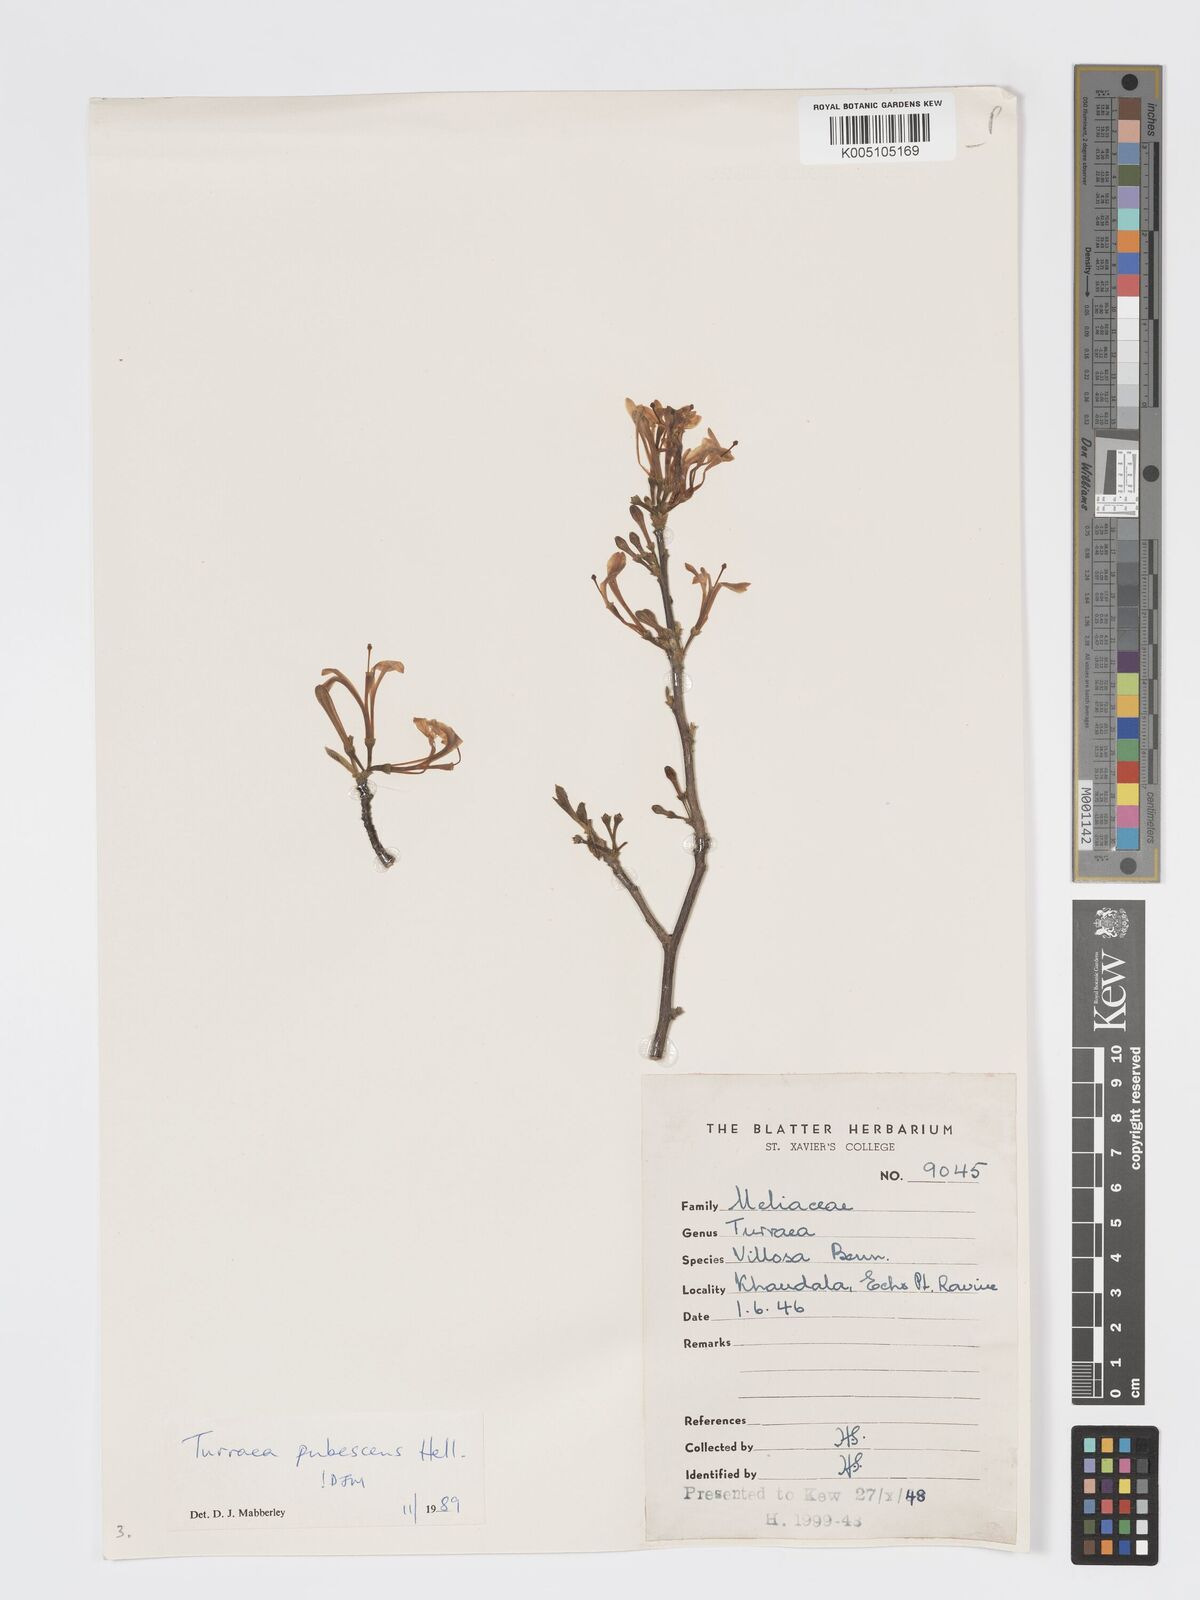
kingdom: Plantae
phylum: Tracheophyta
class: Magnoliopsida
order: Sapindales
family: Meliaceae
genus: Turraea
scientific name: Turraea
